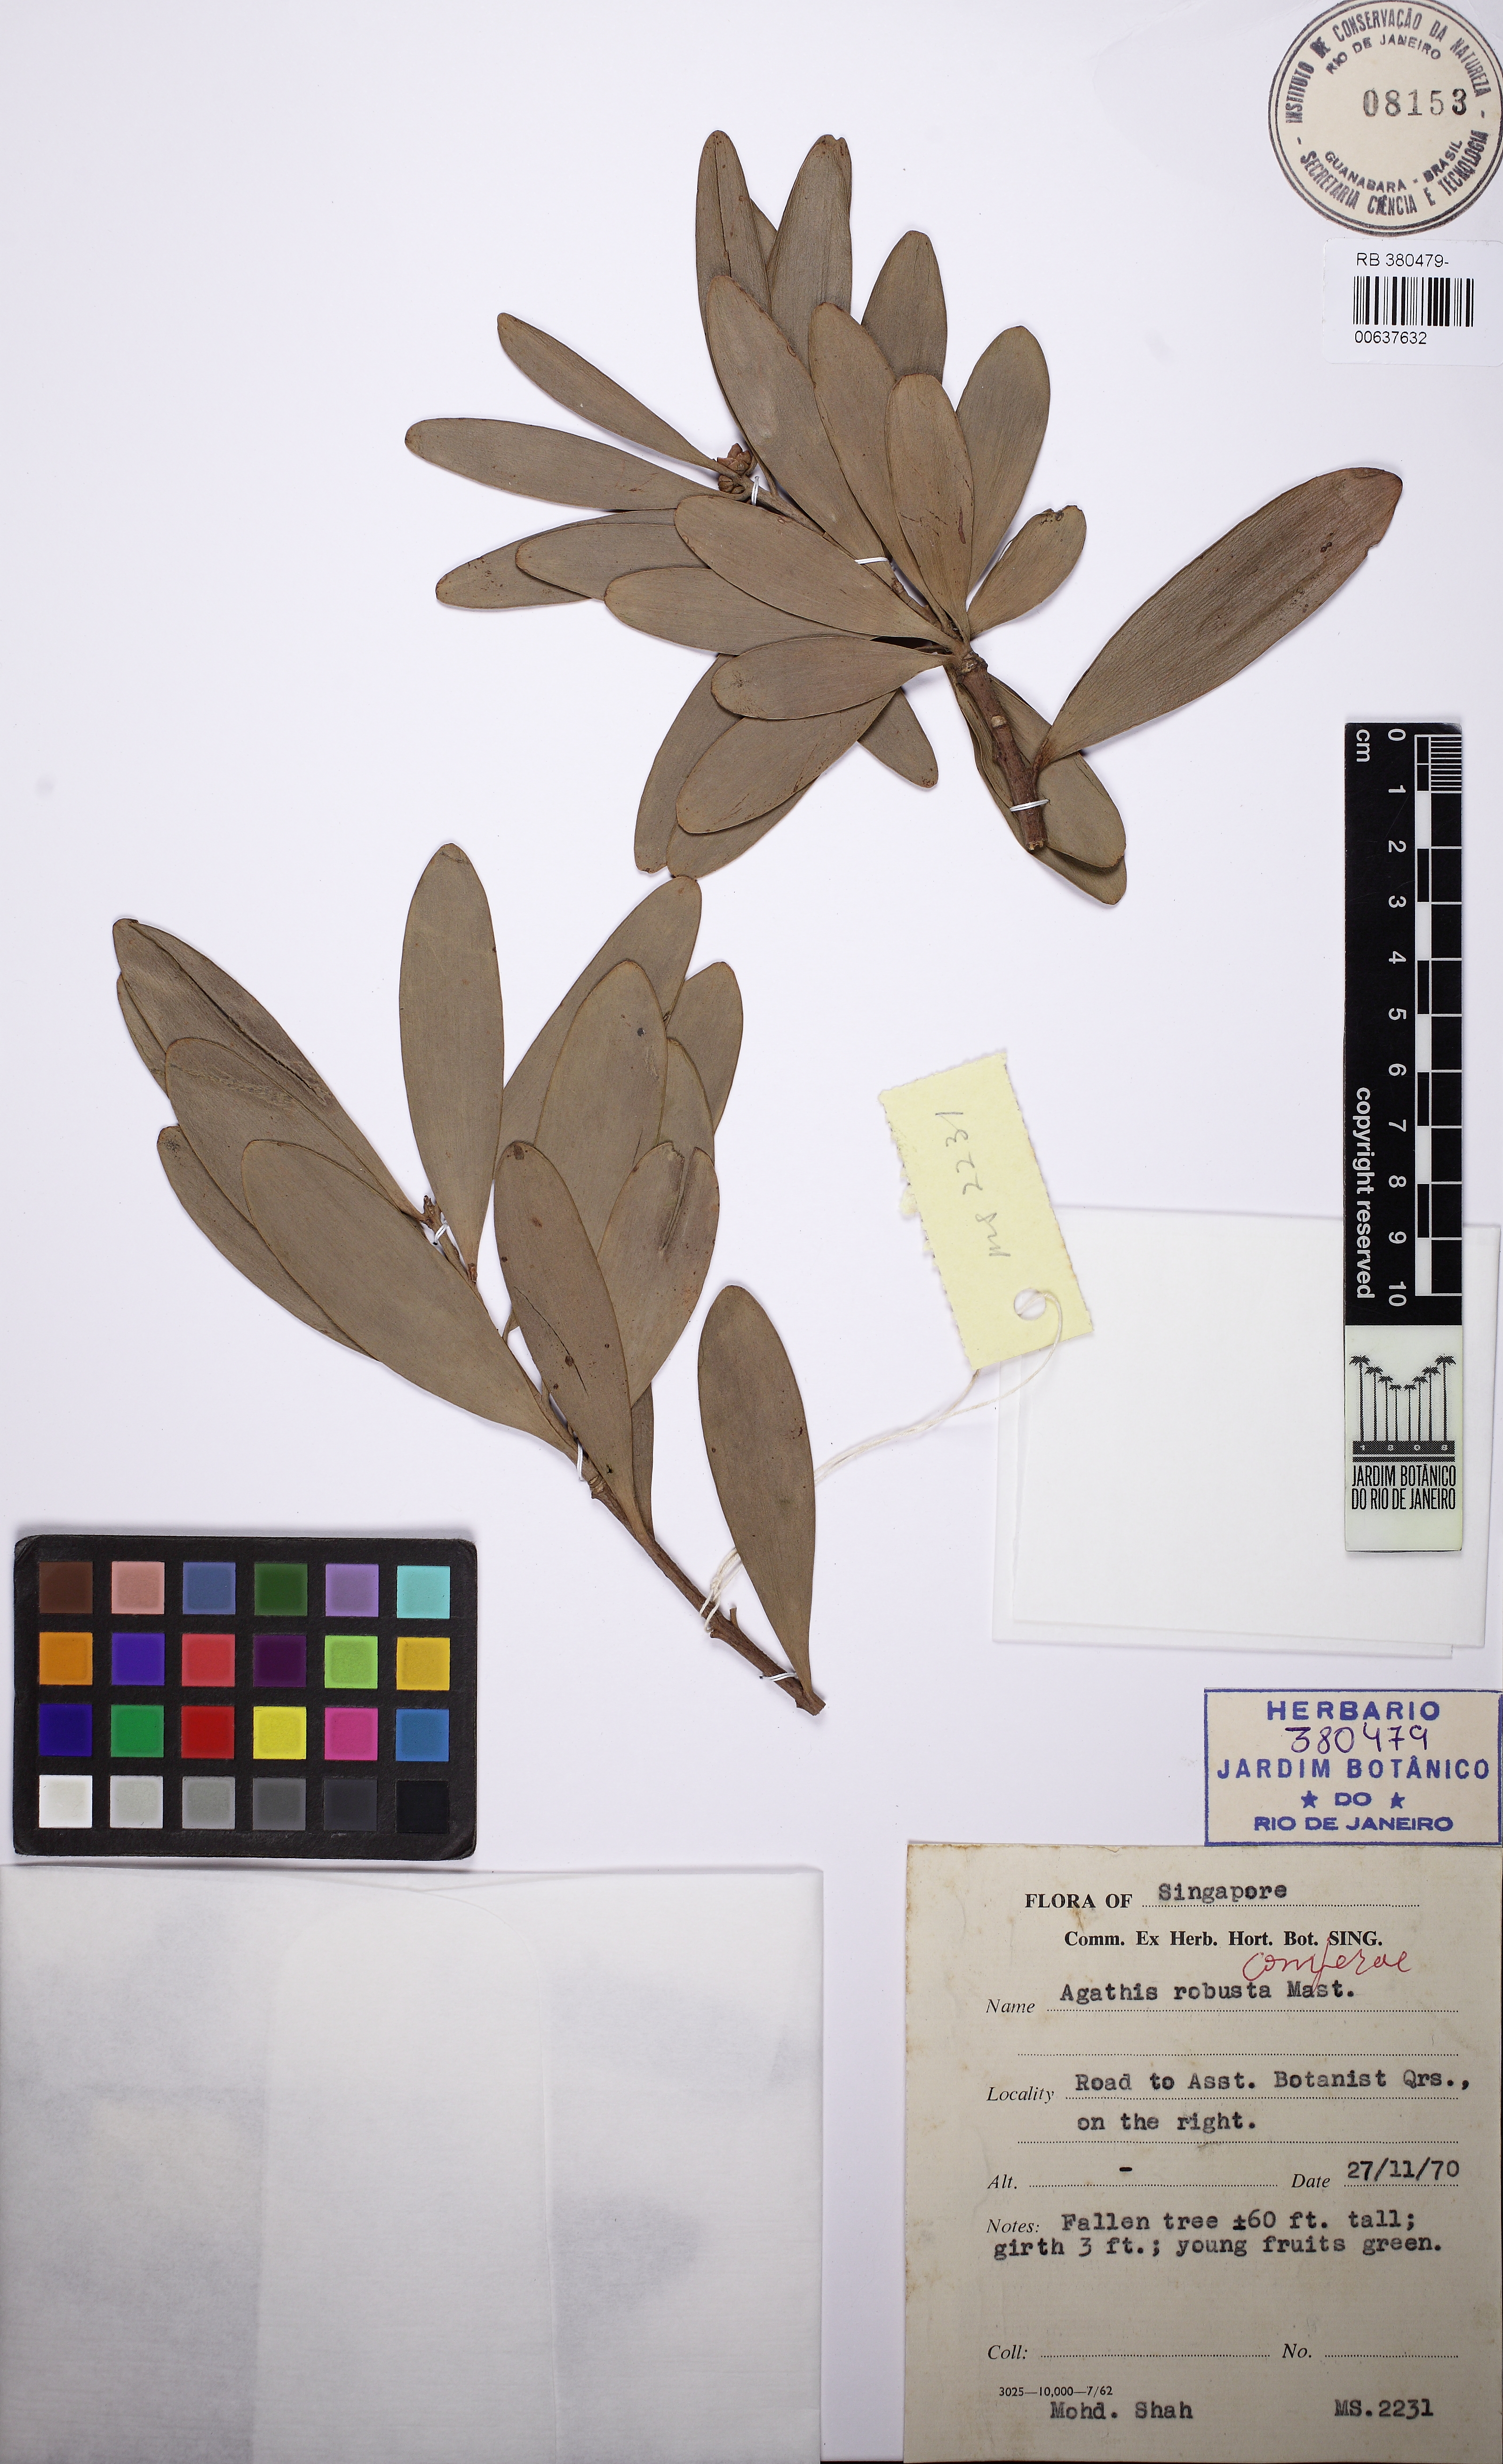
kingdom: Plantae
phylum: Tracheophyta
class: Pinopsida
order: Pinales
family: Araucariaceae
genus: Agathis
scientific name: Agathis robusta
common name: Australian-kauri
